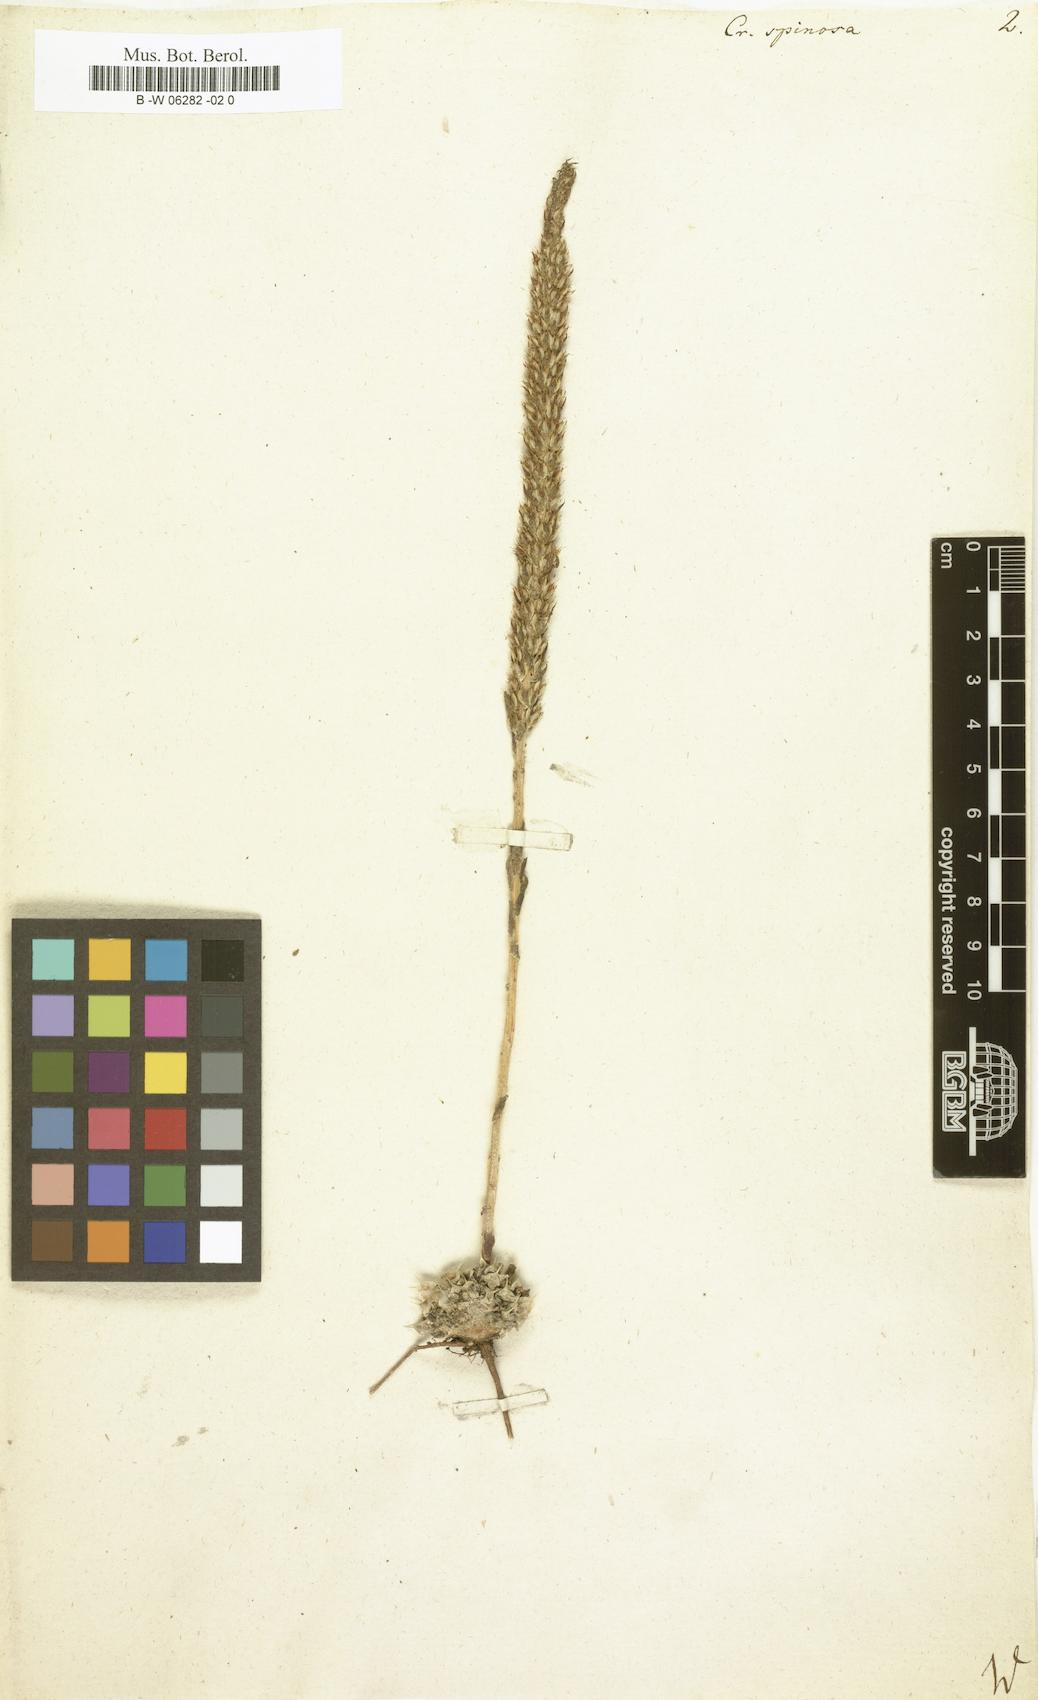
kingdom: Plantae
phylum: Tracheophyta
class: Magnoliopsida
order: Saxifragales
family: Crassulaceae
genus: Orostachys
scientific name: Orostachys spinosa
